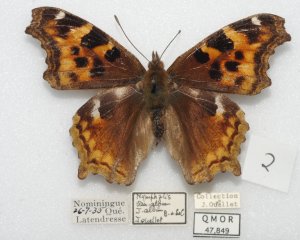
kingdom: Animalia
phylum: Arthropoda
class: Insecta
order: Lepidoptera
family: Nymphalidae
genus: Polygonia
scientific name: Polygonia vaualbum
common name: Compton Tortoiseshell
